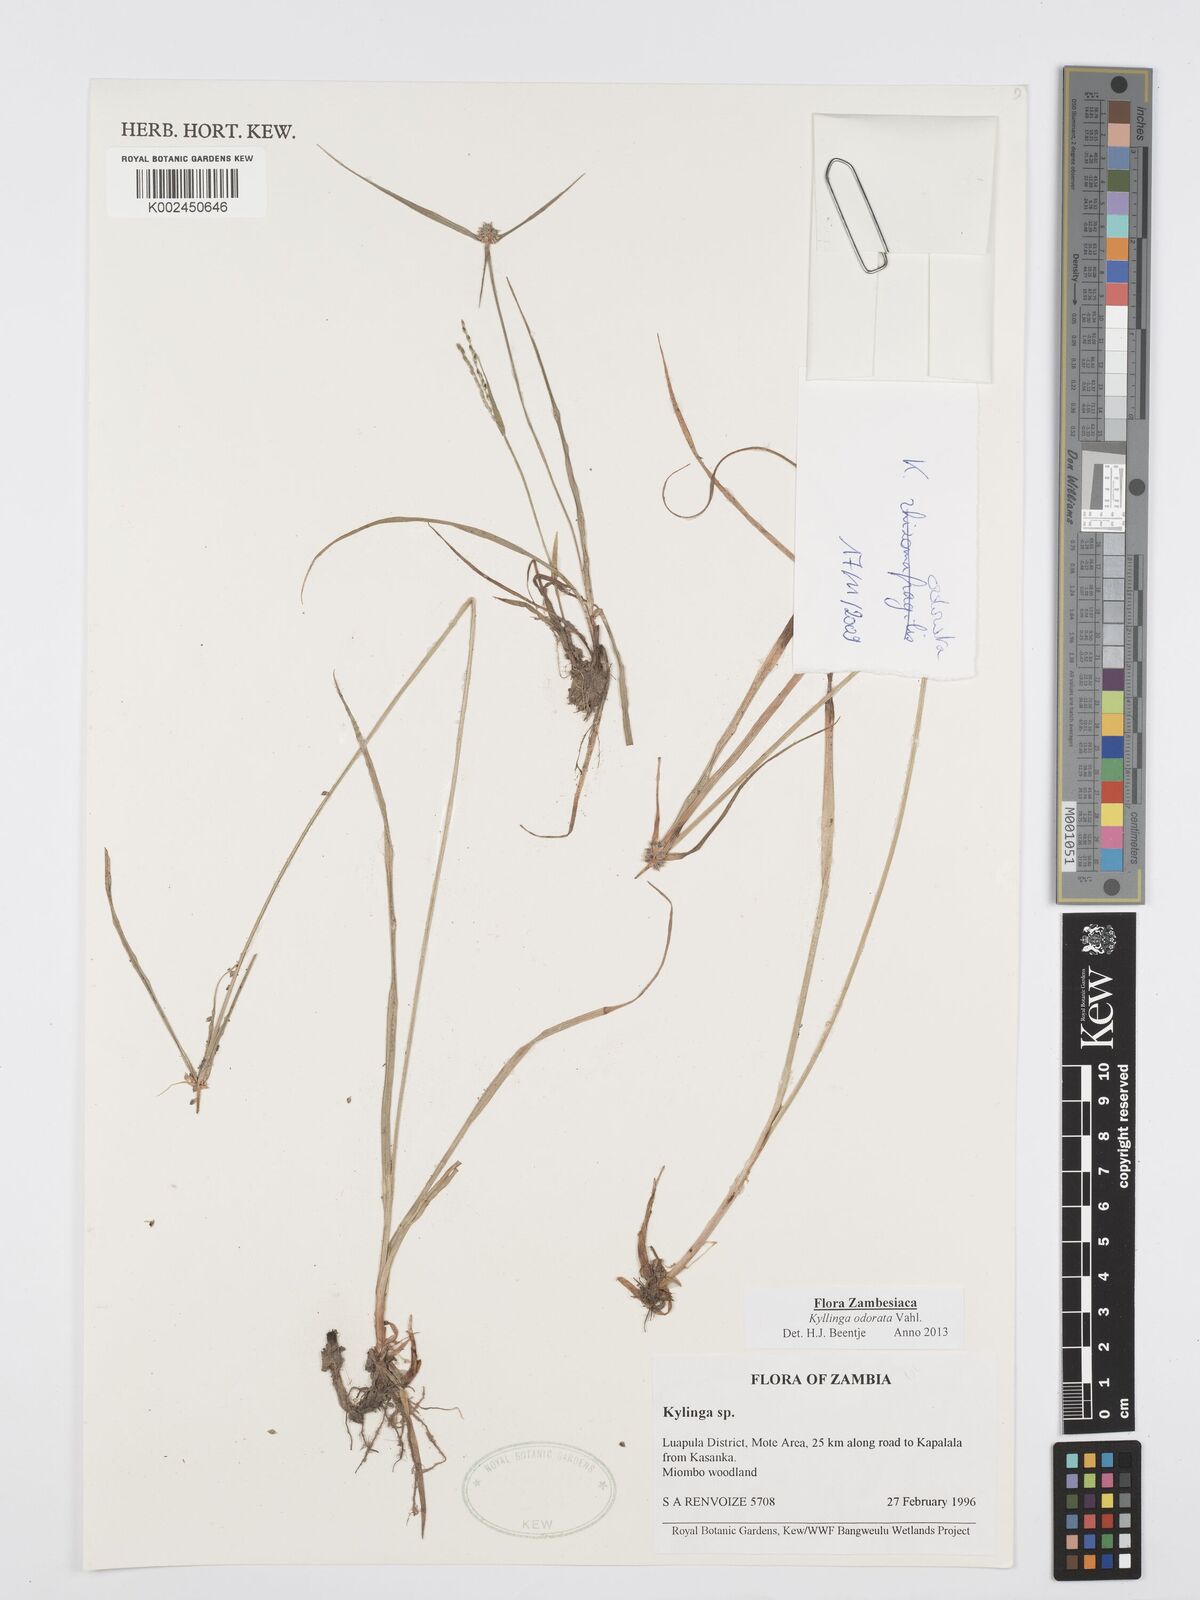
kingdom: Plantae
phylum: Tracheophyta
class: Liliopsida
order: Poales
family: Cyperaceae
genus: Cyperus
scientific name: Cyperus
